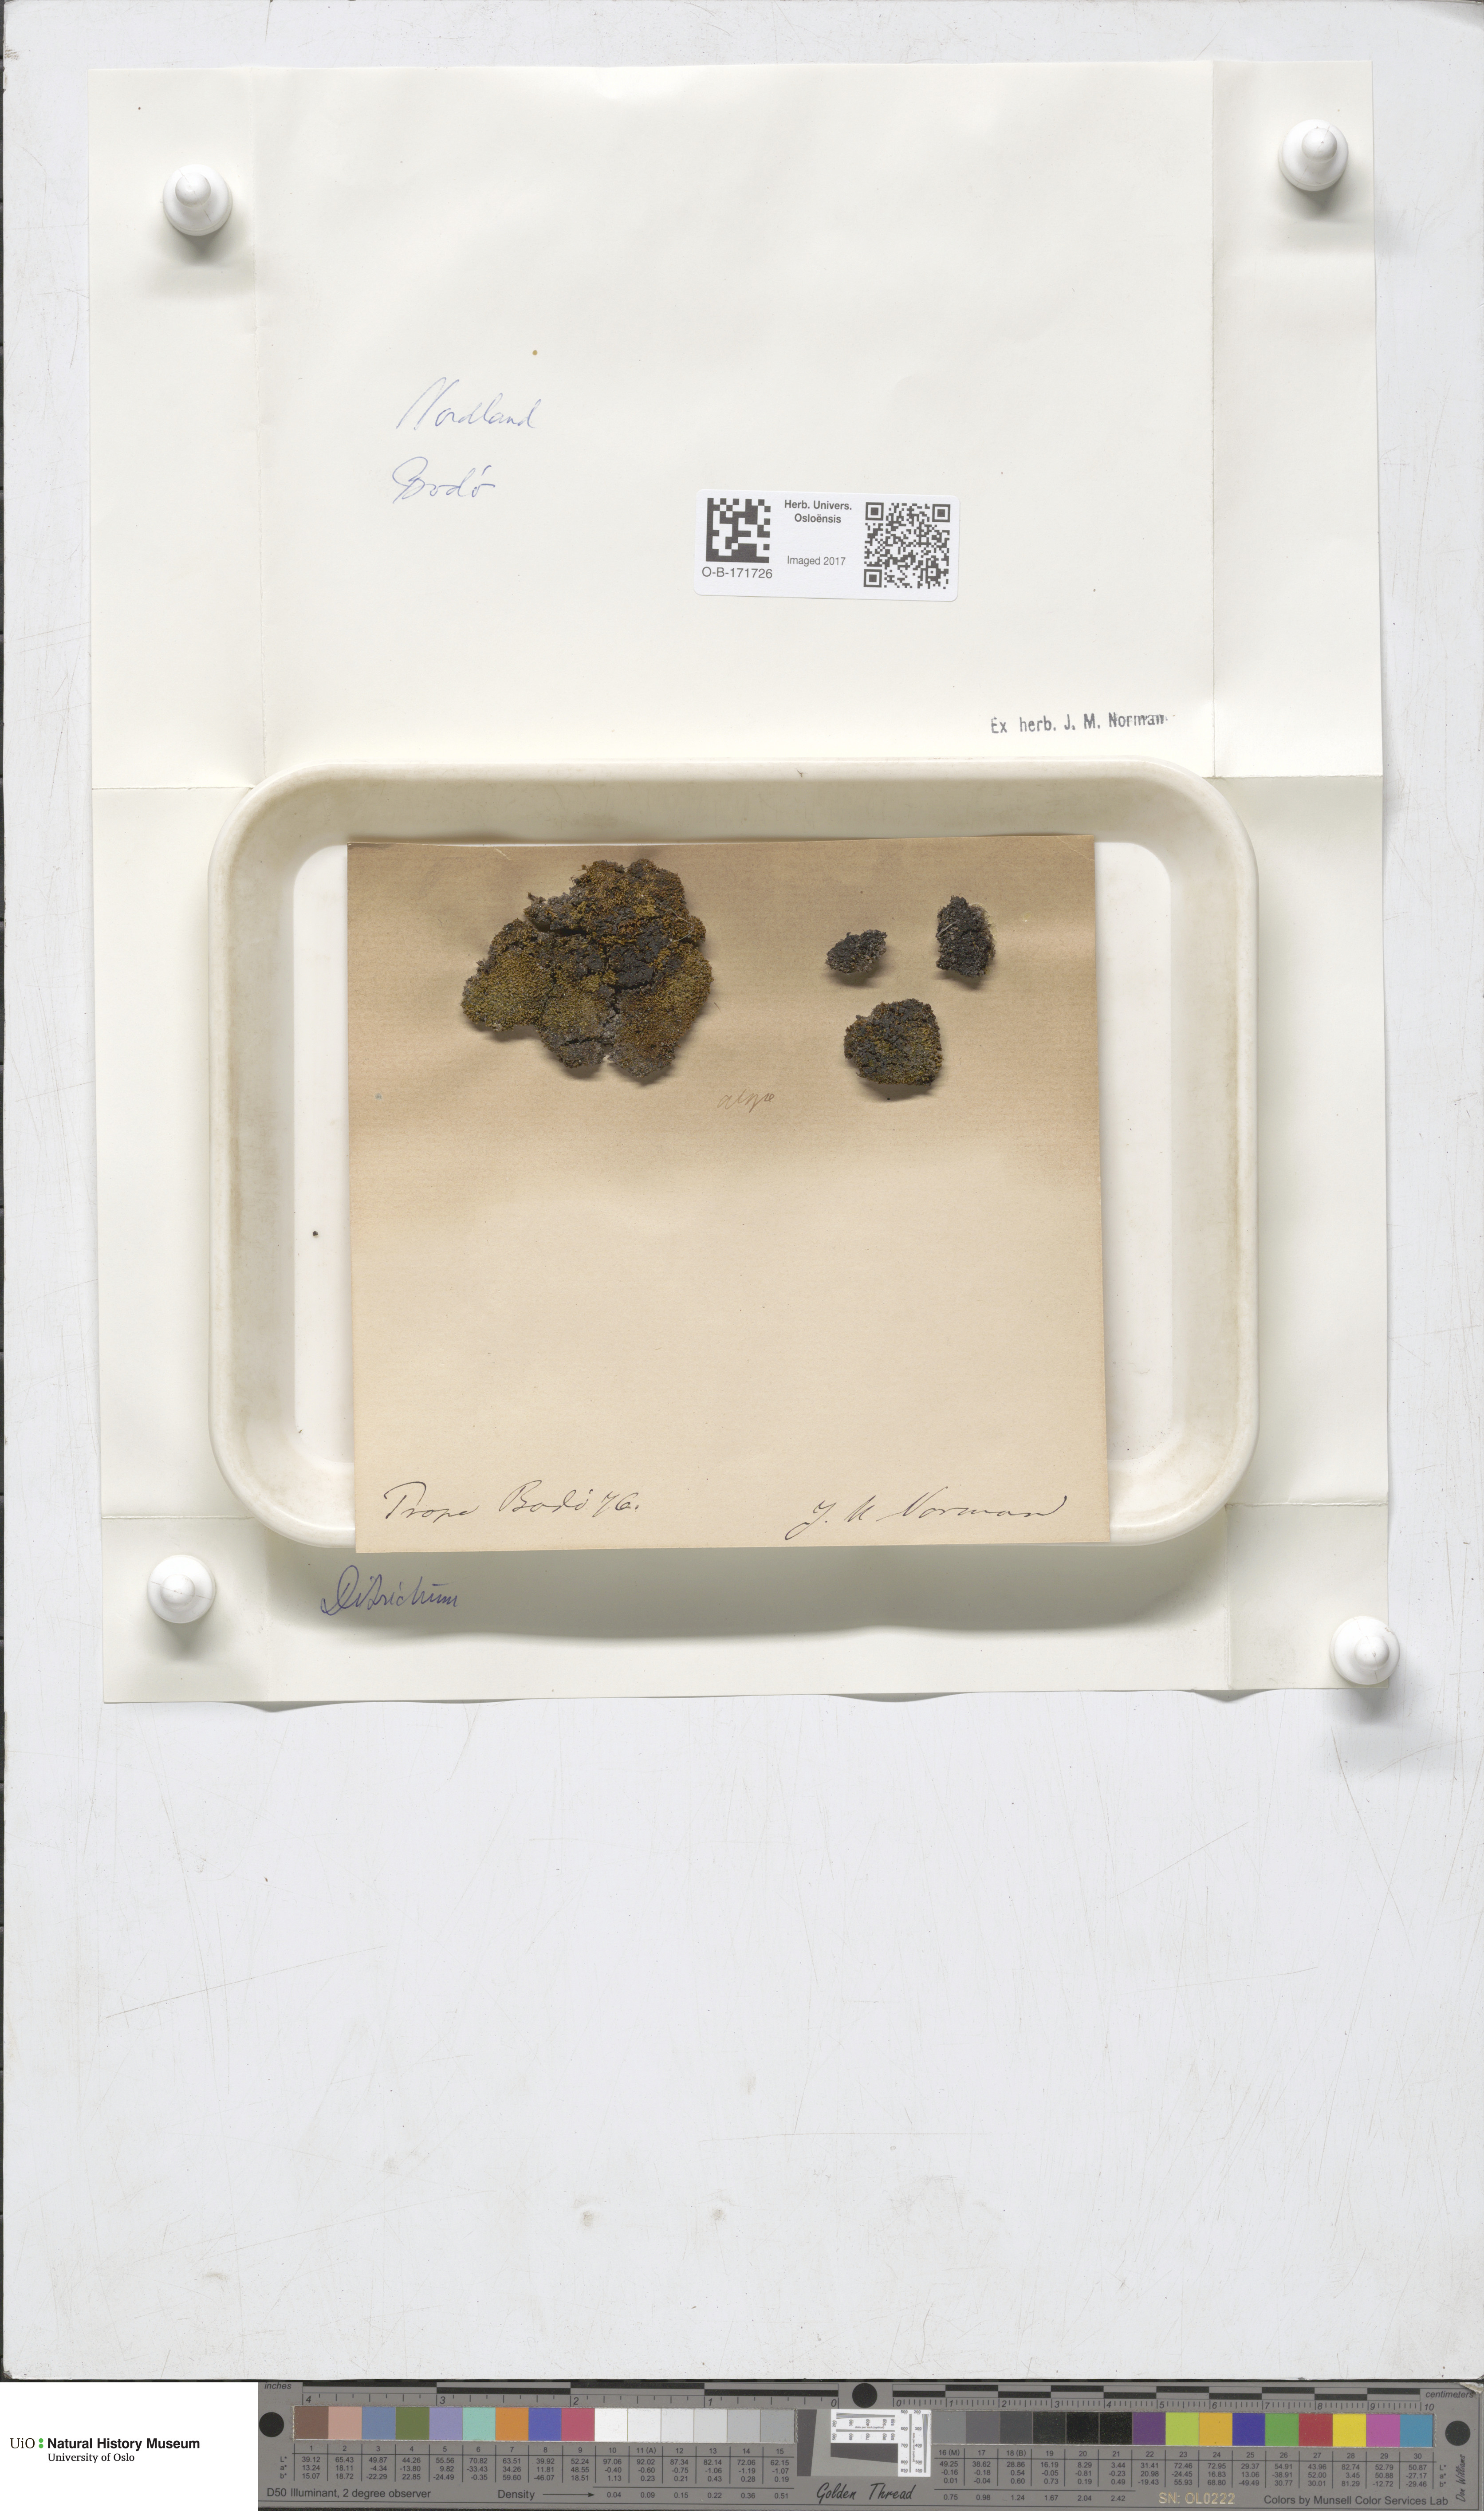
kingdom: Plantae
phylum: Bryophyta
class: Bryopsida
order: Dicranales
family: Ditrichaceae
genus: Ditrichum
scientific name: Ditrichum
